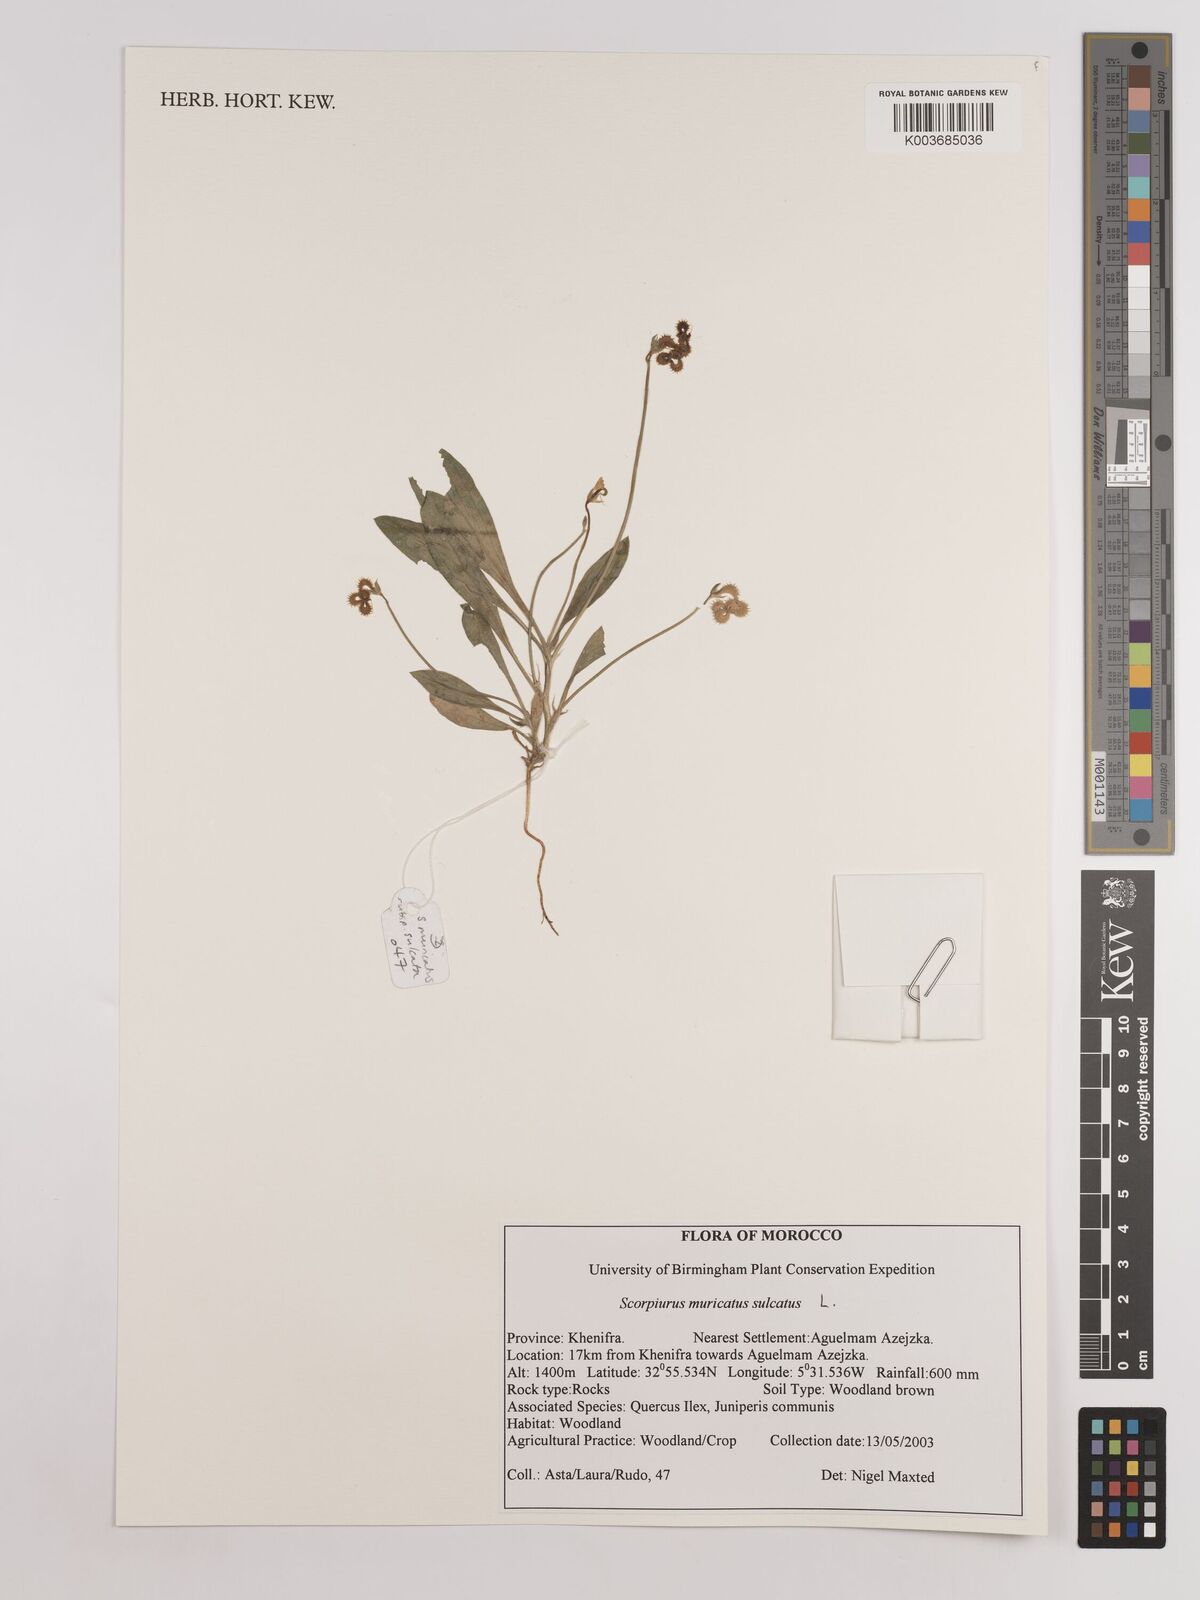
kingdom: Plantae
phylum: Tracheophyta
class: Magnoliopsida
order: Fabales
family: Fabaceae
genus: Scorpiurus
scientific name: Scorpiurus muricatus
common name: Caterpillar-plant
